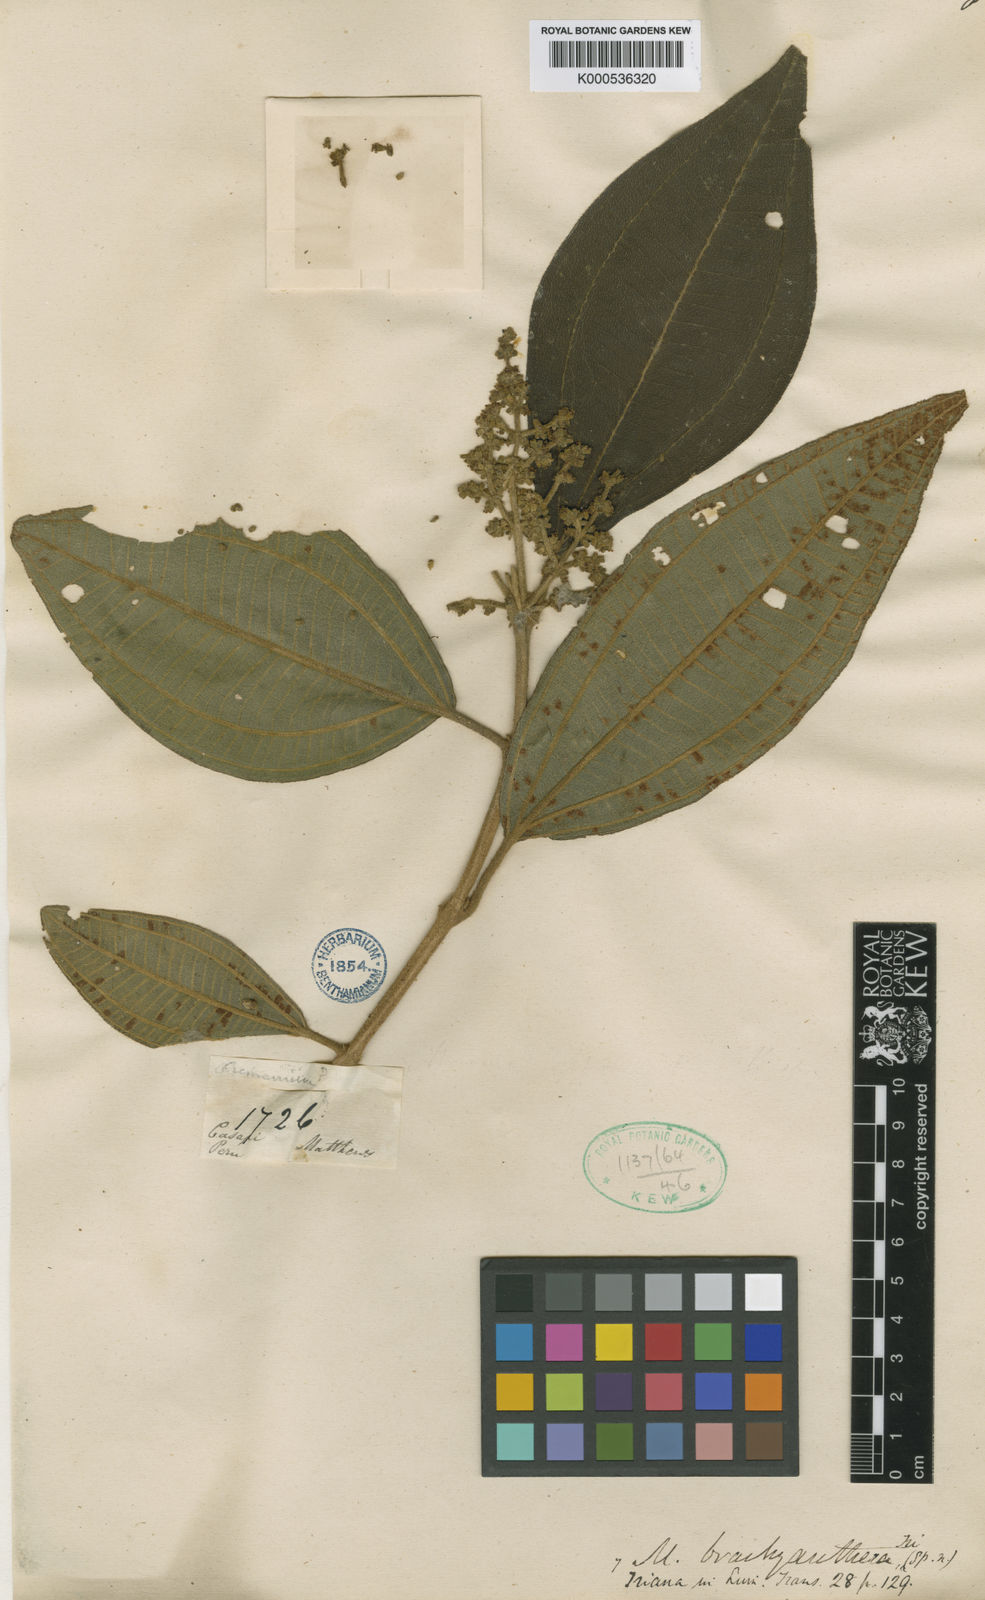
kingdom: Plantae
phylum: Tracheophyta
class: Magnoliopsida
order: Myrtales
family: Melastomataceae
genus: Miconia
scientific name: Miconia brachyanthera
